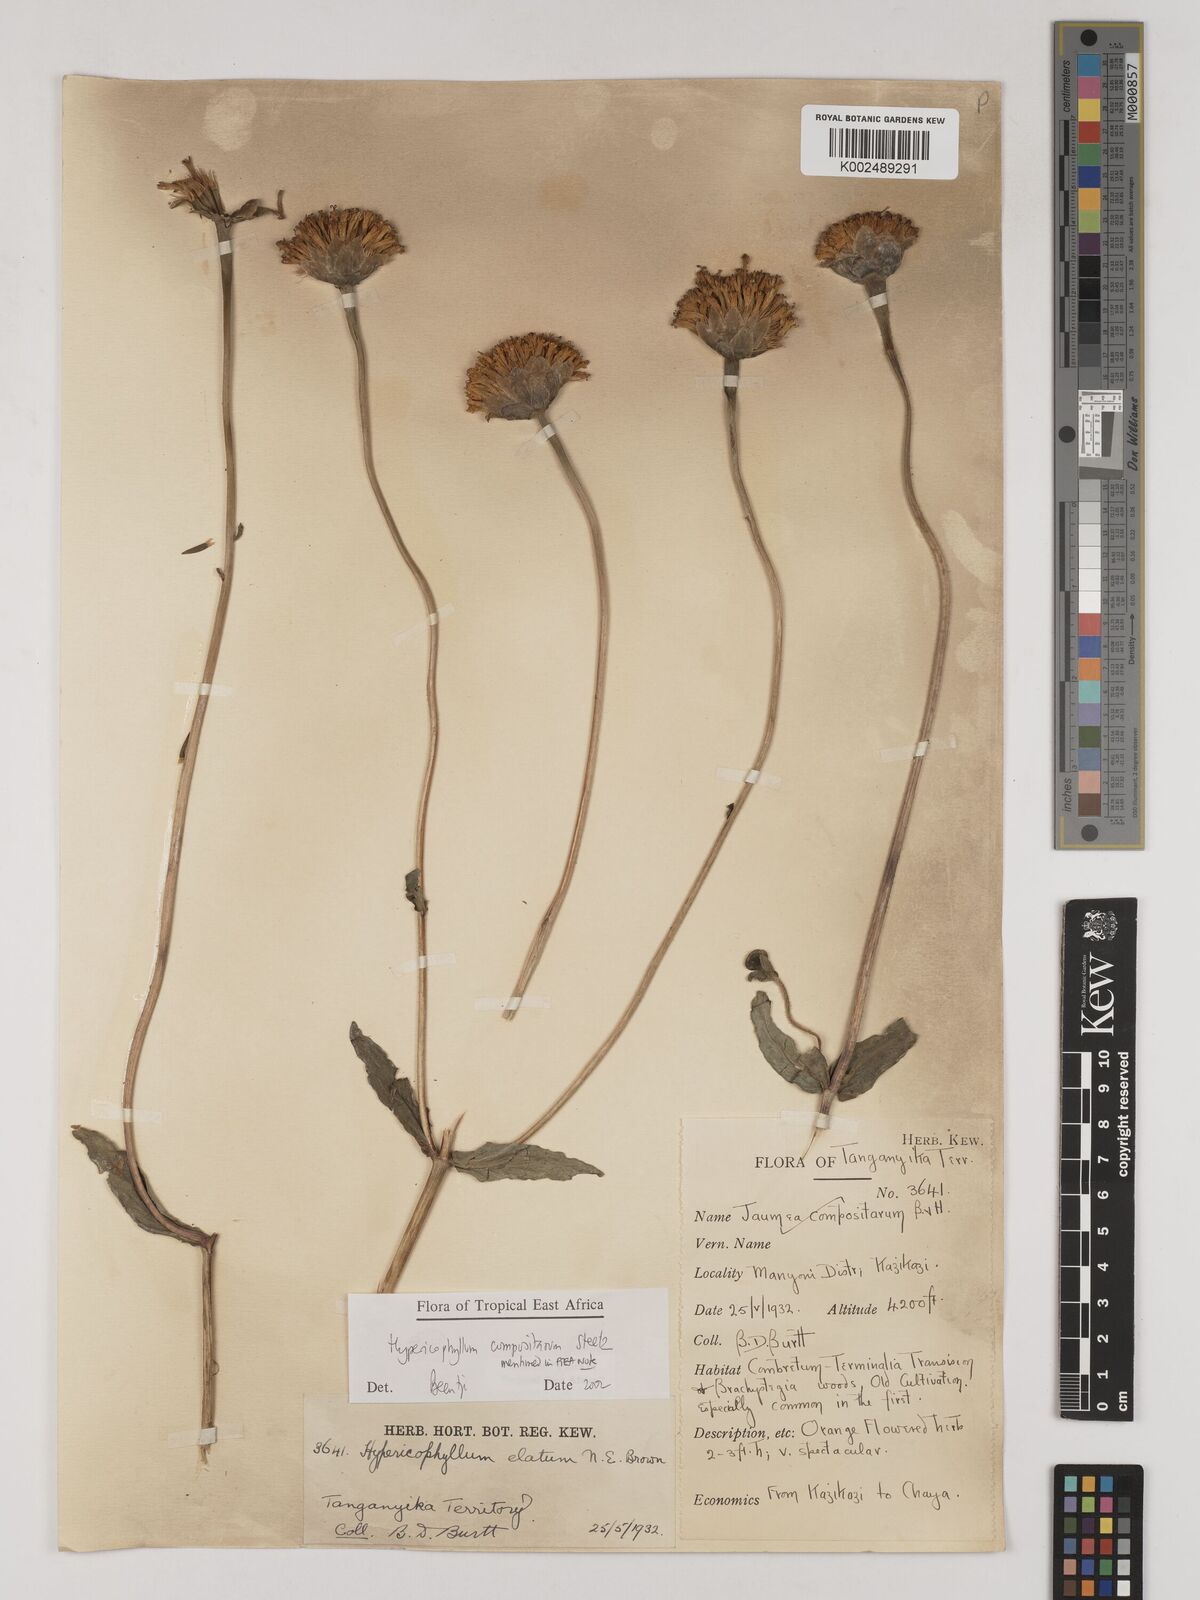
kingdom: Plantae
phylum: Tracheophyta
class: Magnoliopsida
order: Asterales
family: Asteraceae
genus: Hypericophyllum
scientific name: Hypericophyllum compositarum
